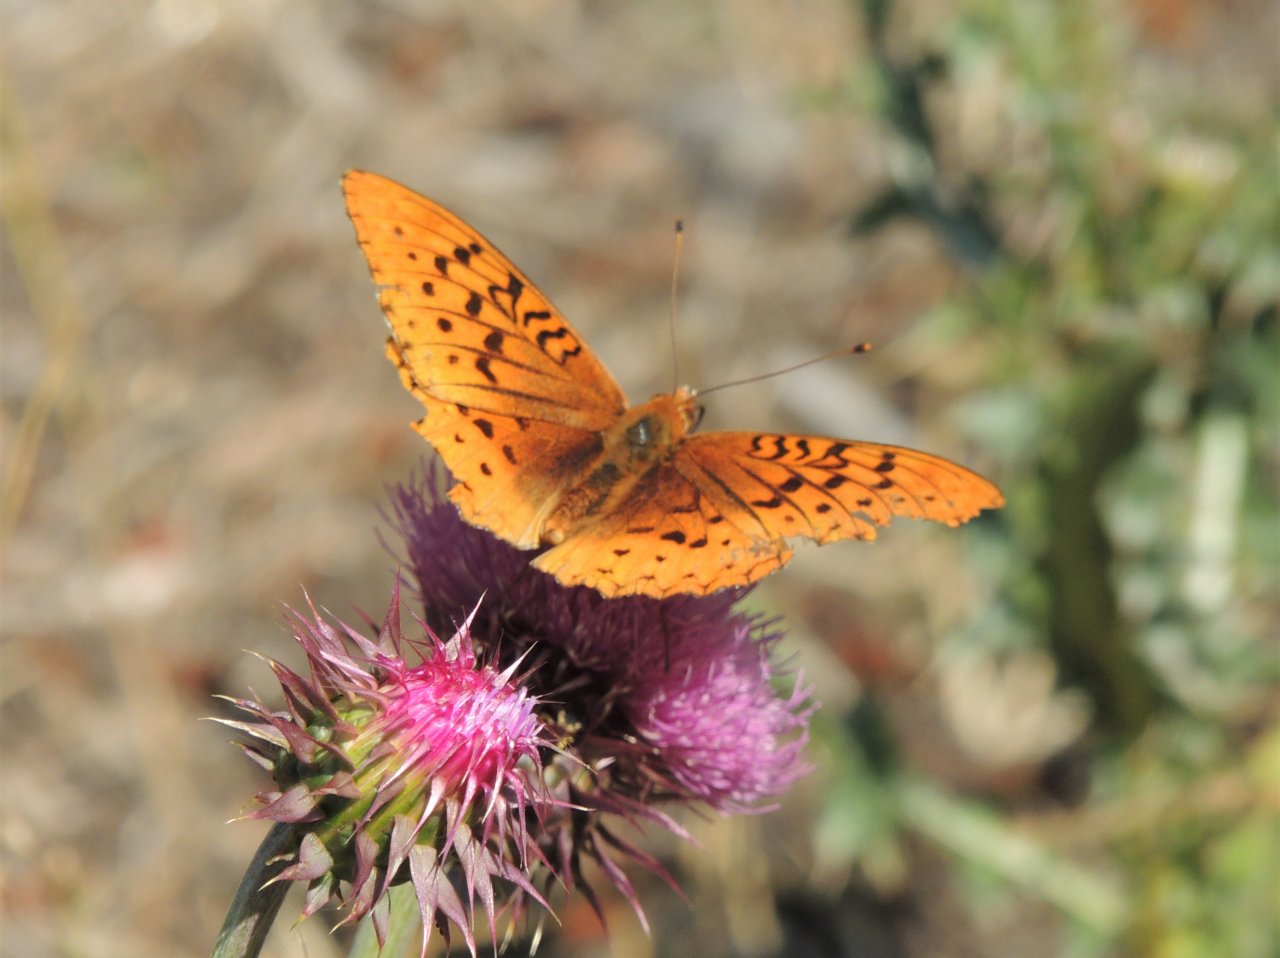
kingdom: Animalia
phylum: Arthropoda
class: Insecta
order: Lepidoptera
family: Nymphalidae
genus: Speyeria
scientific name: Speyeria cybele
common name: Great Spangled Fritillary
